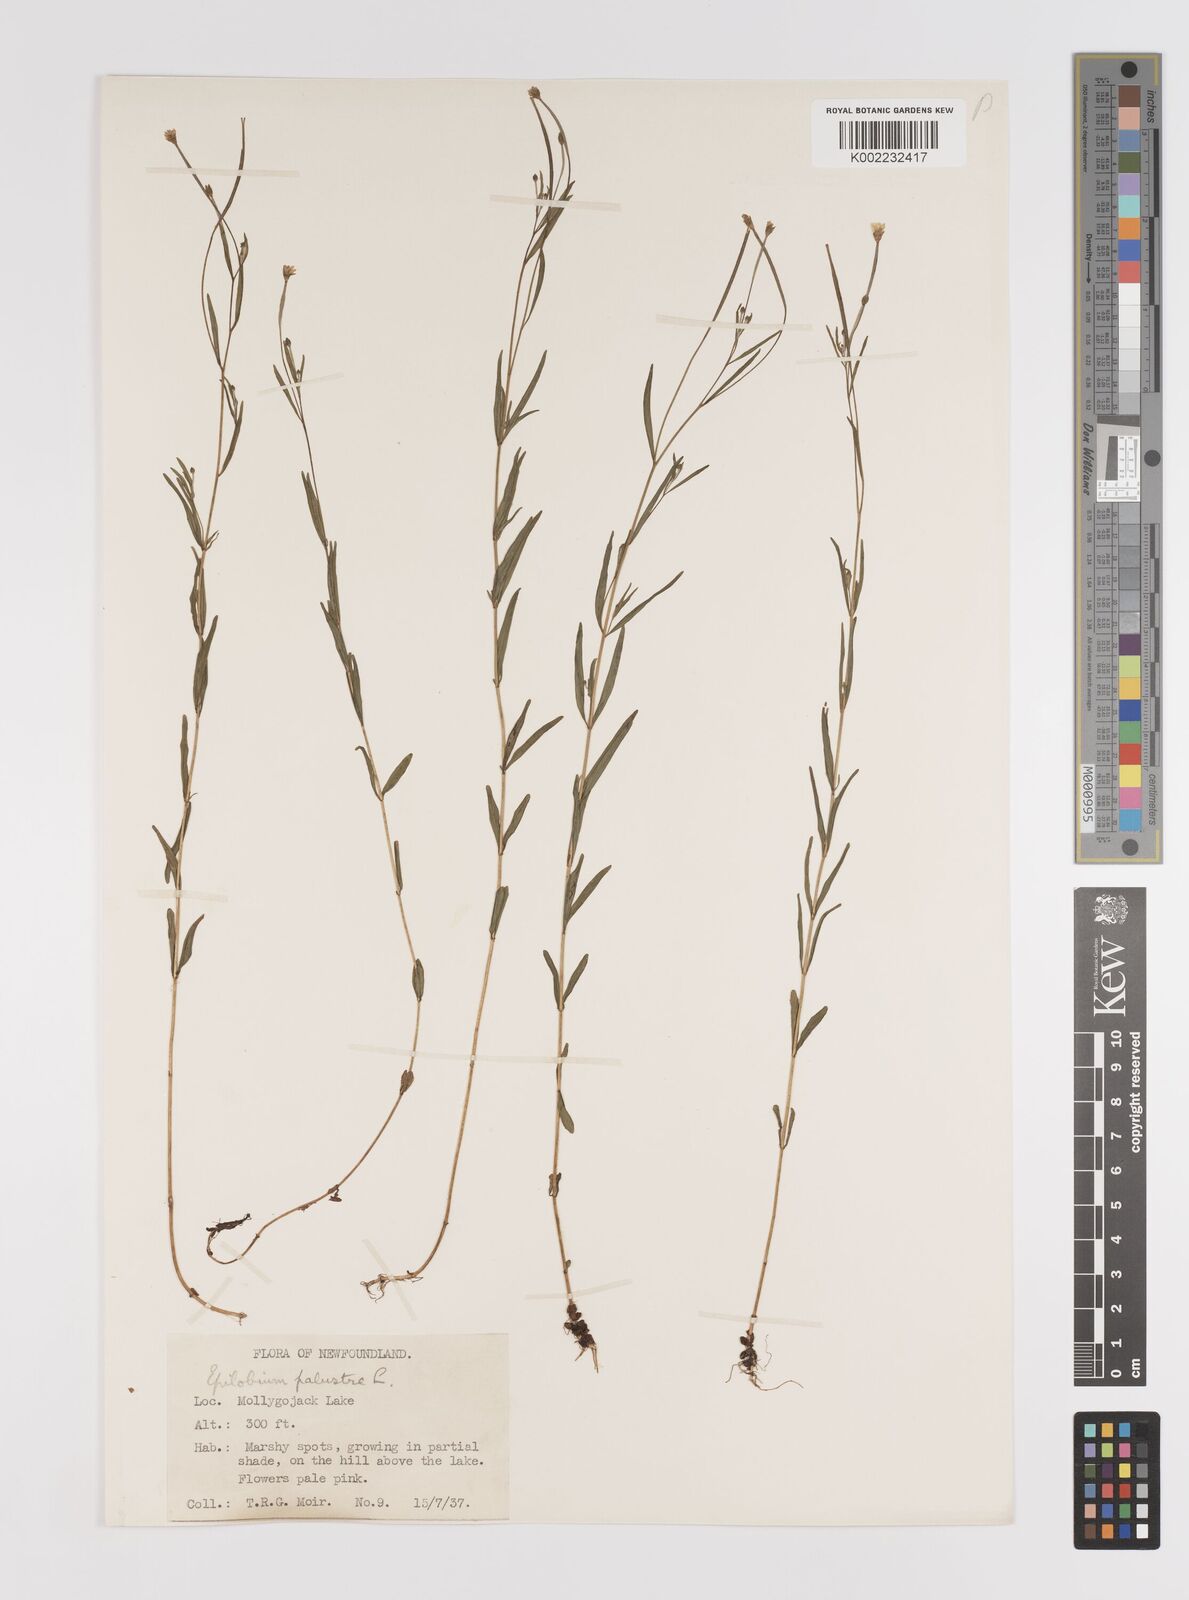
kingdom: Plantae
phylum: Tracheophyta
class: Magnoliopsida
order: Myrtales
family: Onagraceae
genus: Epilobium
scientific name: Epilobium palustre
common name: Marsh willowherb
